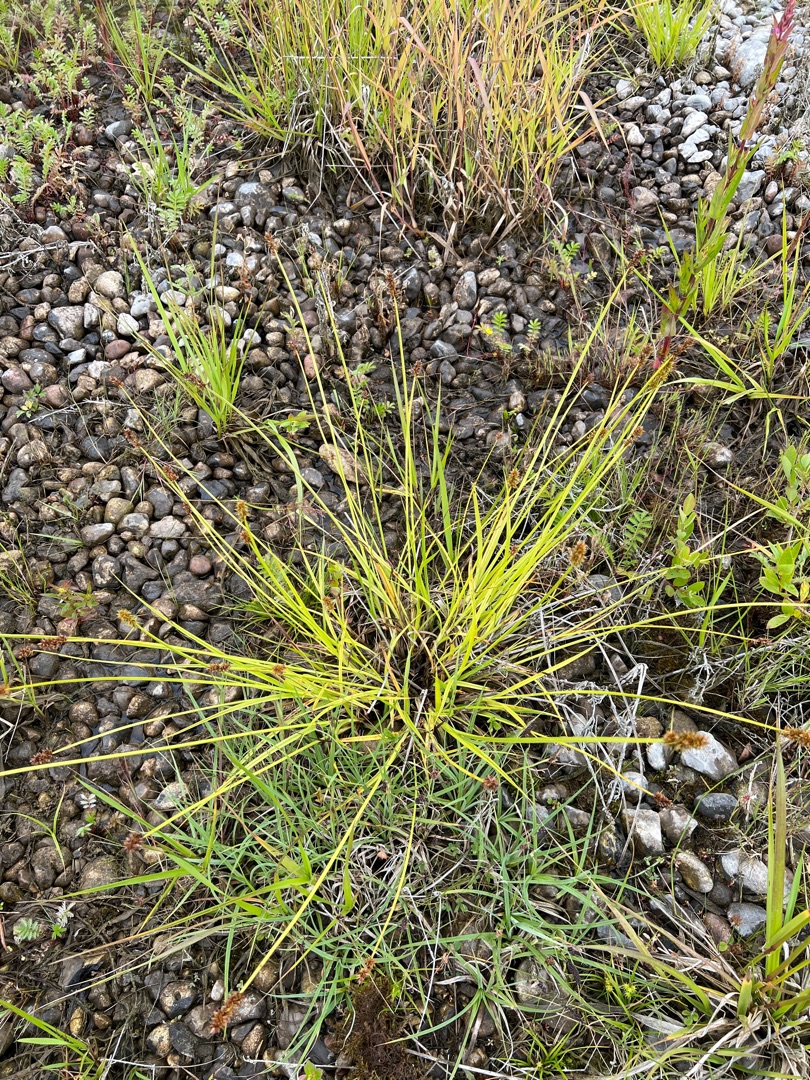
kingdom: Plantae
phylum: Tracheophyta
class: Liliopsida
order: Poales
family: Cyperaceae
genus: Carex
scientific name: Carex otrubae
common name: Sylt-star
